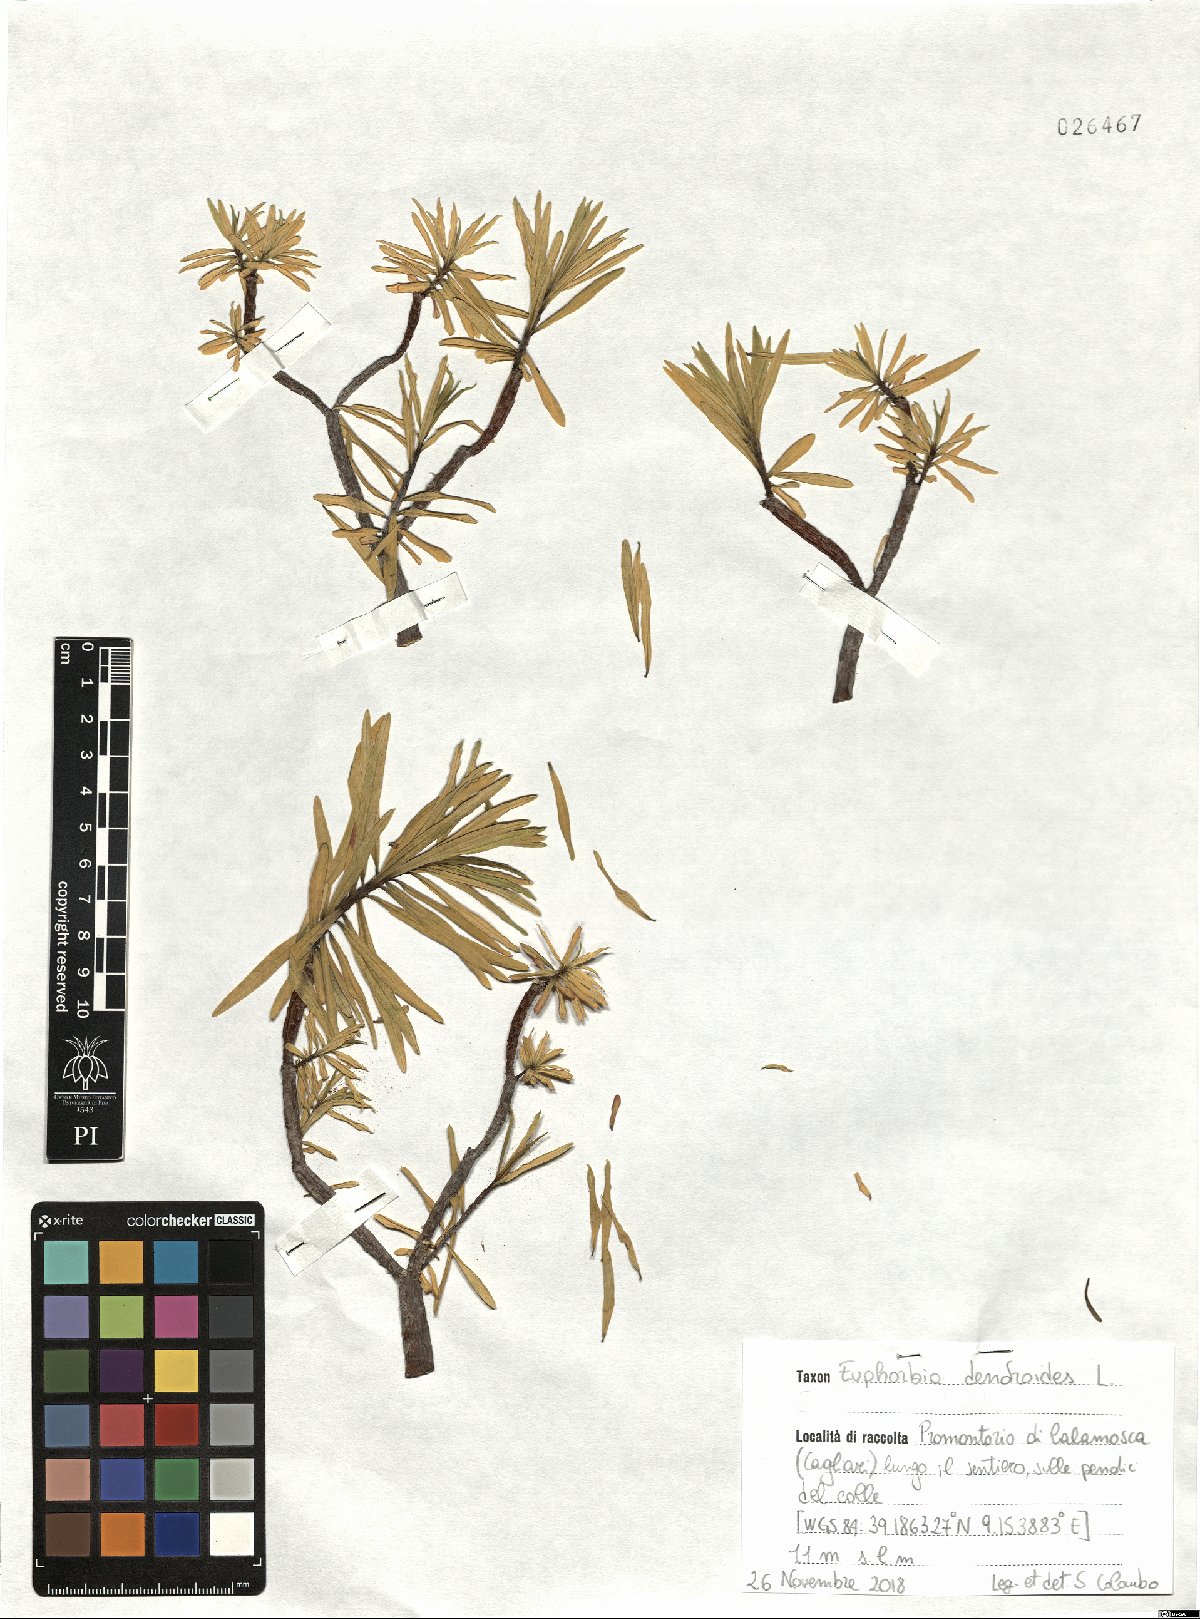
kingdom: Plantae
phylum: Tracheophyta
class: Magnoliopsida
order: Malpighiales
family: Euphorbiaceae
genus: Euphorbia
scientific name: Euphorbia dendroides
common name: Tree spurge
